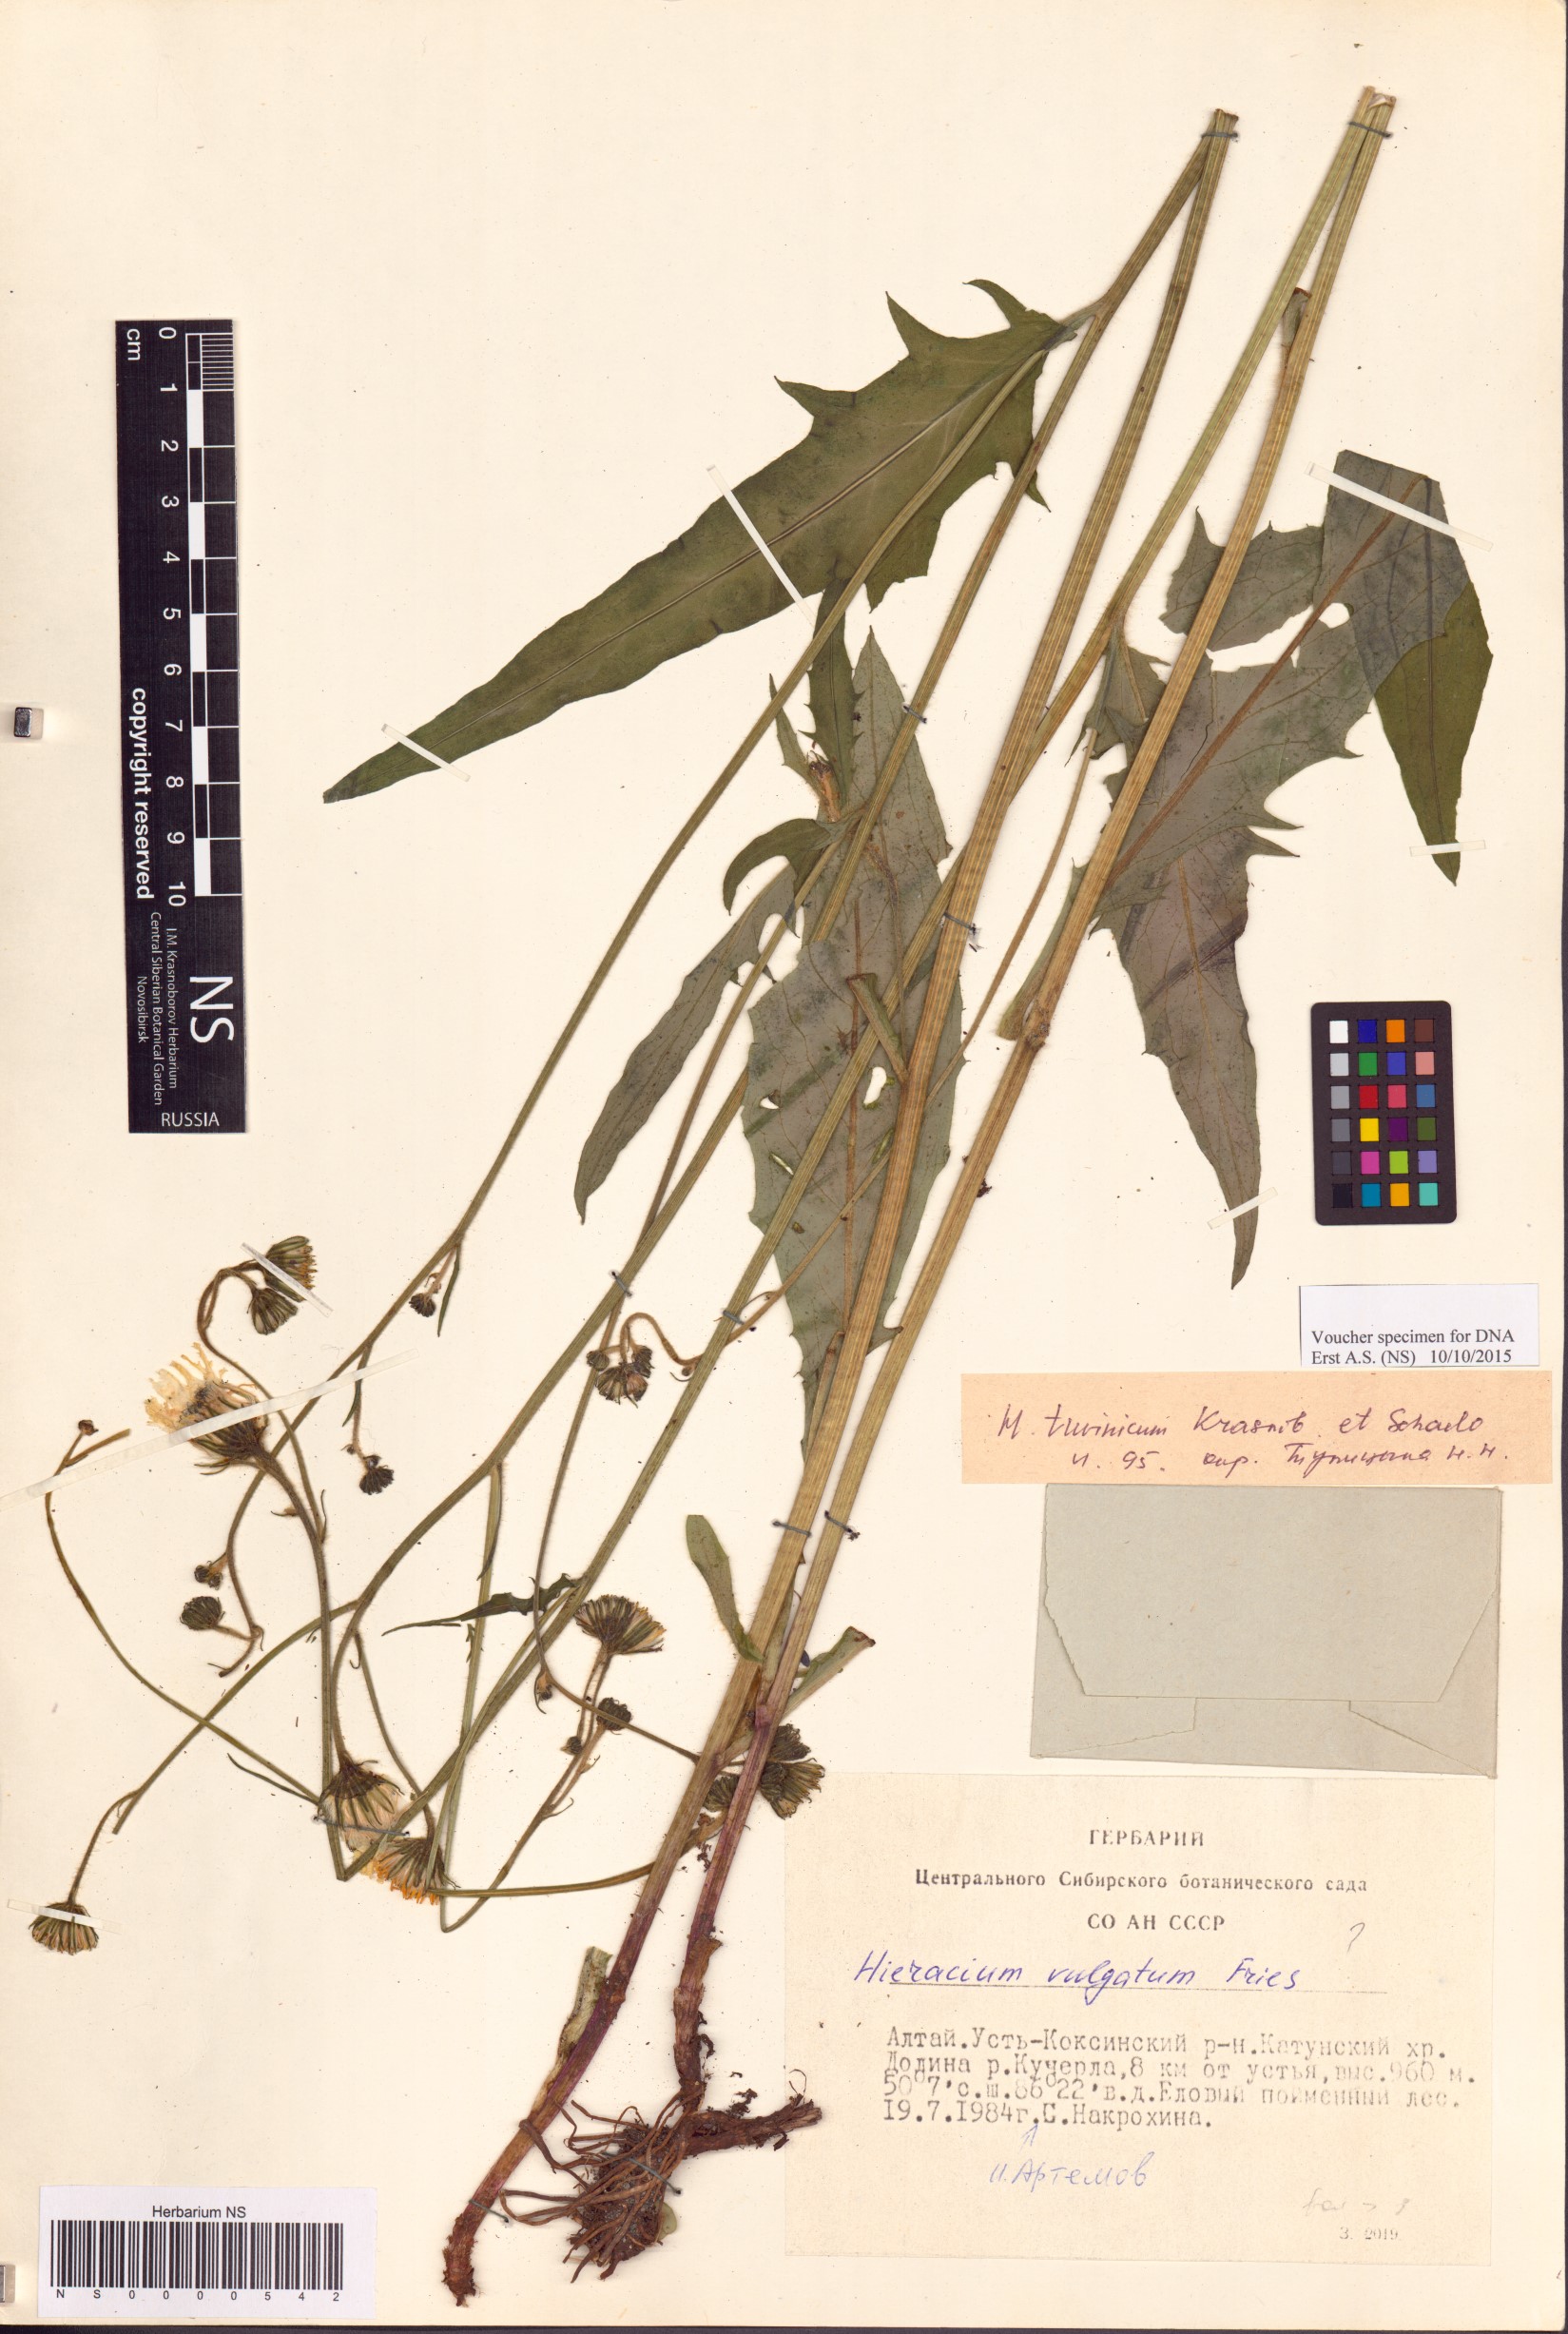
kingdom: Plantae
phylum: Tracheophyta
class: Magnoliopsida
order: Asterales
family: Asteraceae
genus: Hieracium
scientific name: Hieracium vulgatum
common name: Common hawkweed
